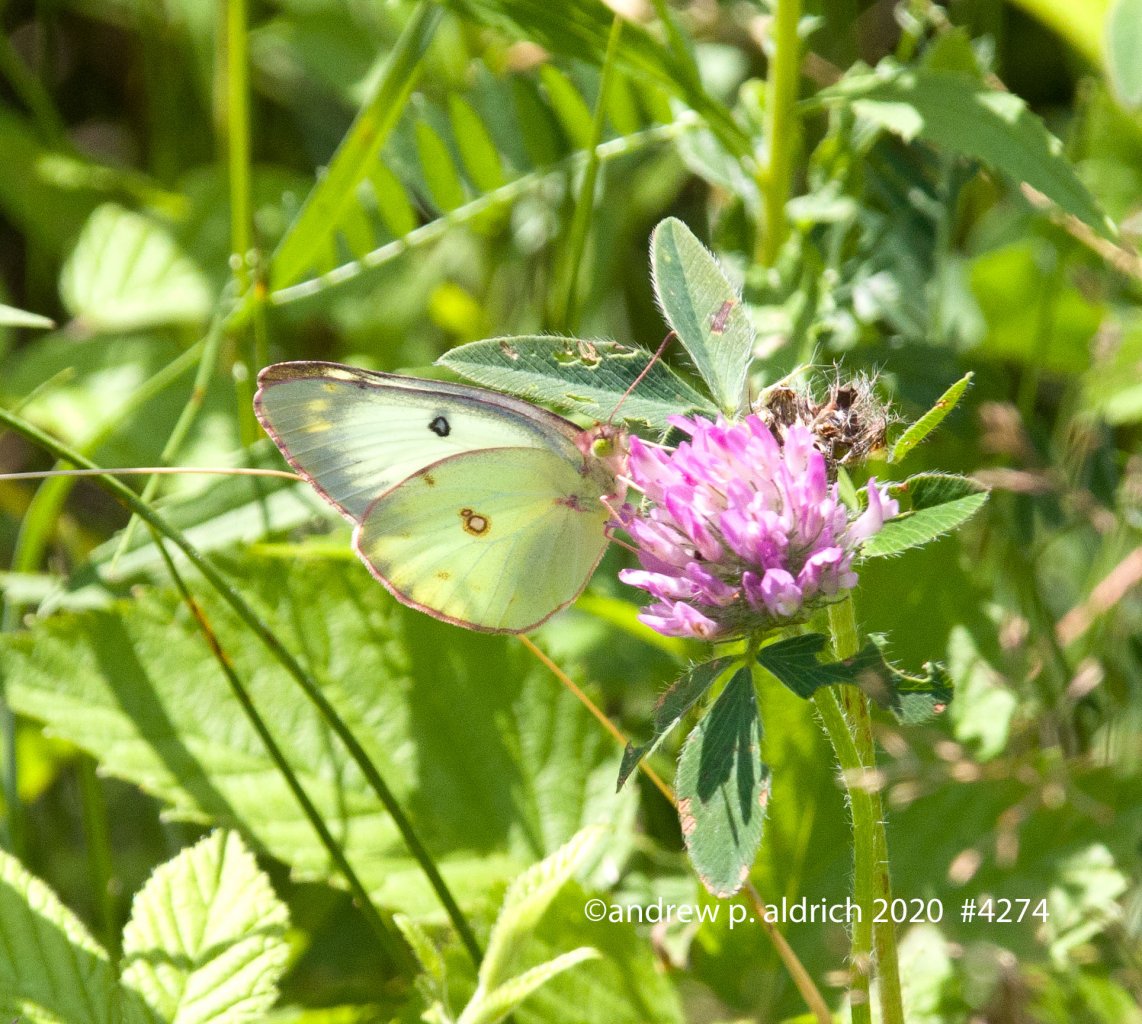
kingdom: Animalia
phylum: Arthropoda
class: Insecta
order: Lepidoptera
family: Pieridae
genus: Colias
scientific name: Colias philodice
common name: Clouded Sulphur
